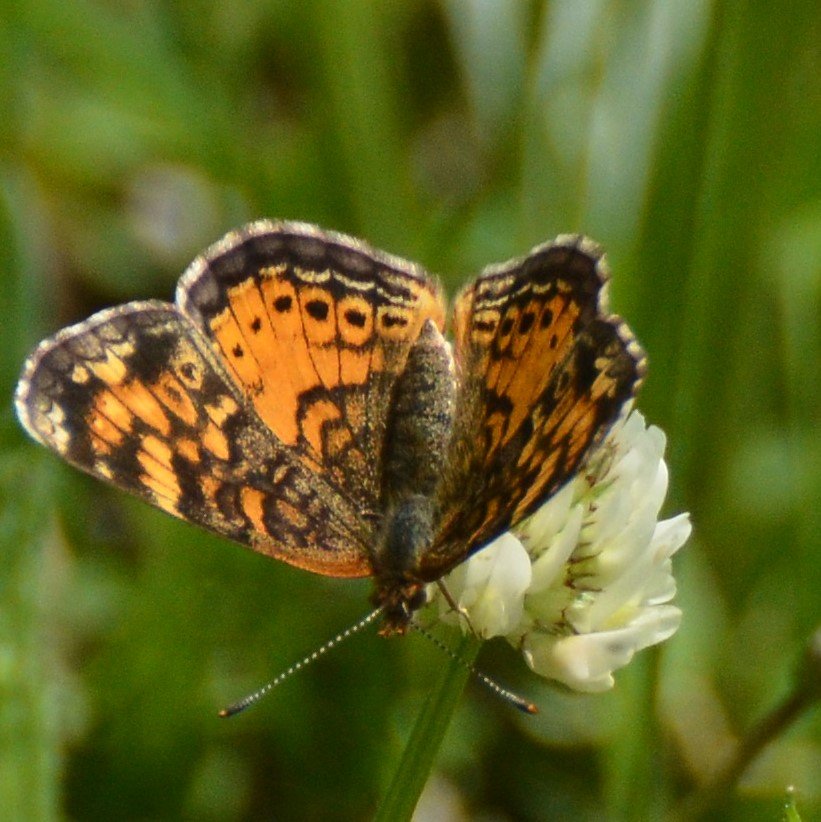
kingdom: Animalia
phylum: Arthropoda
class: Insecta
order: Lepidoptera
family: Nymphalidae
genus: Phyciodes
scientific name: Phyciodes tharos
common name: Northern Crescent
